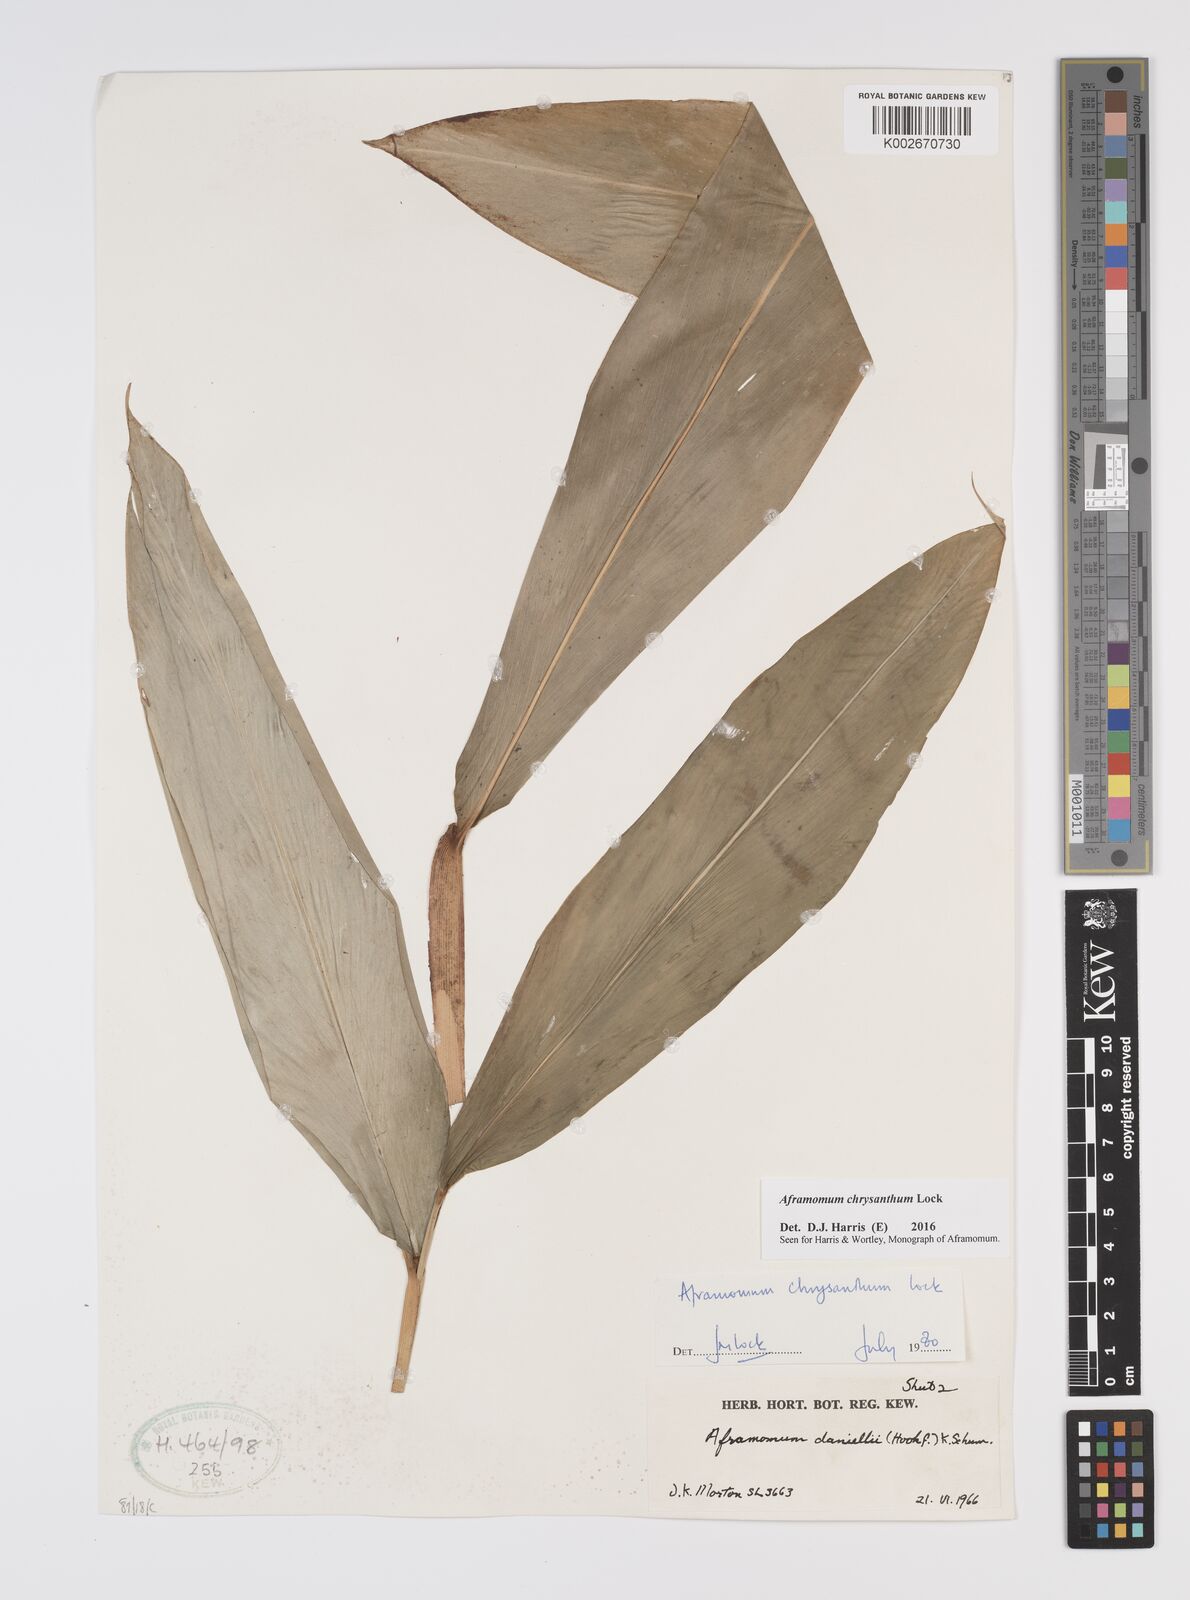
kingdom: Plantae
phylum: Tracheophyta
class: Liliopsida
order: Zingiberales
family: Zingiberaceae
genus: Aframomum
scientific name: Aframomum chrysanthum
